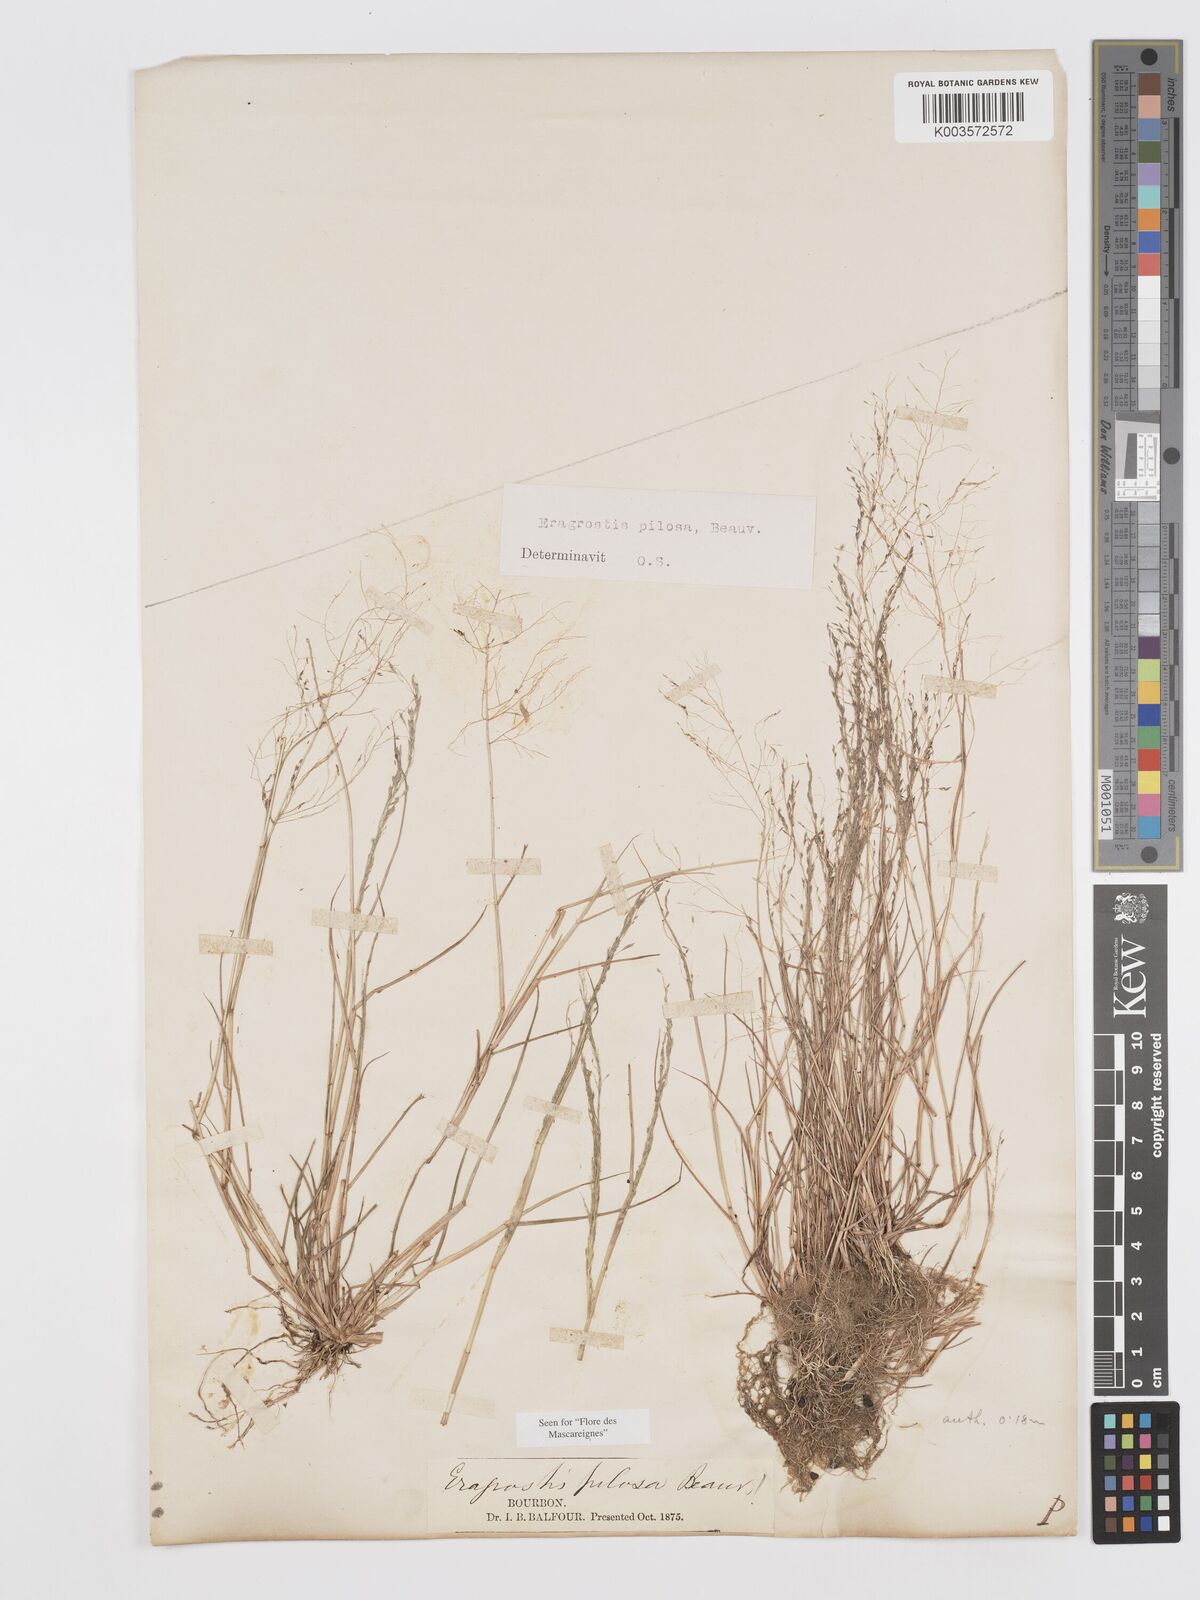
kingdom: Plantae
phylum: Tracheophyta
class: Liliopsida
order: Poales
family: Poaceae
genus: Eragrostis
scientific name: Eragrostis pilosa
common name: Indian lovegrass
